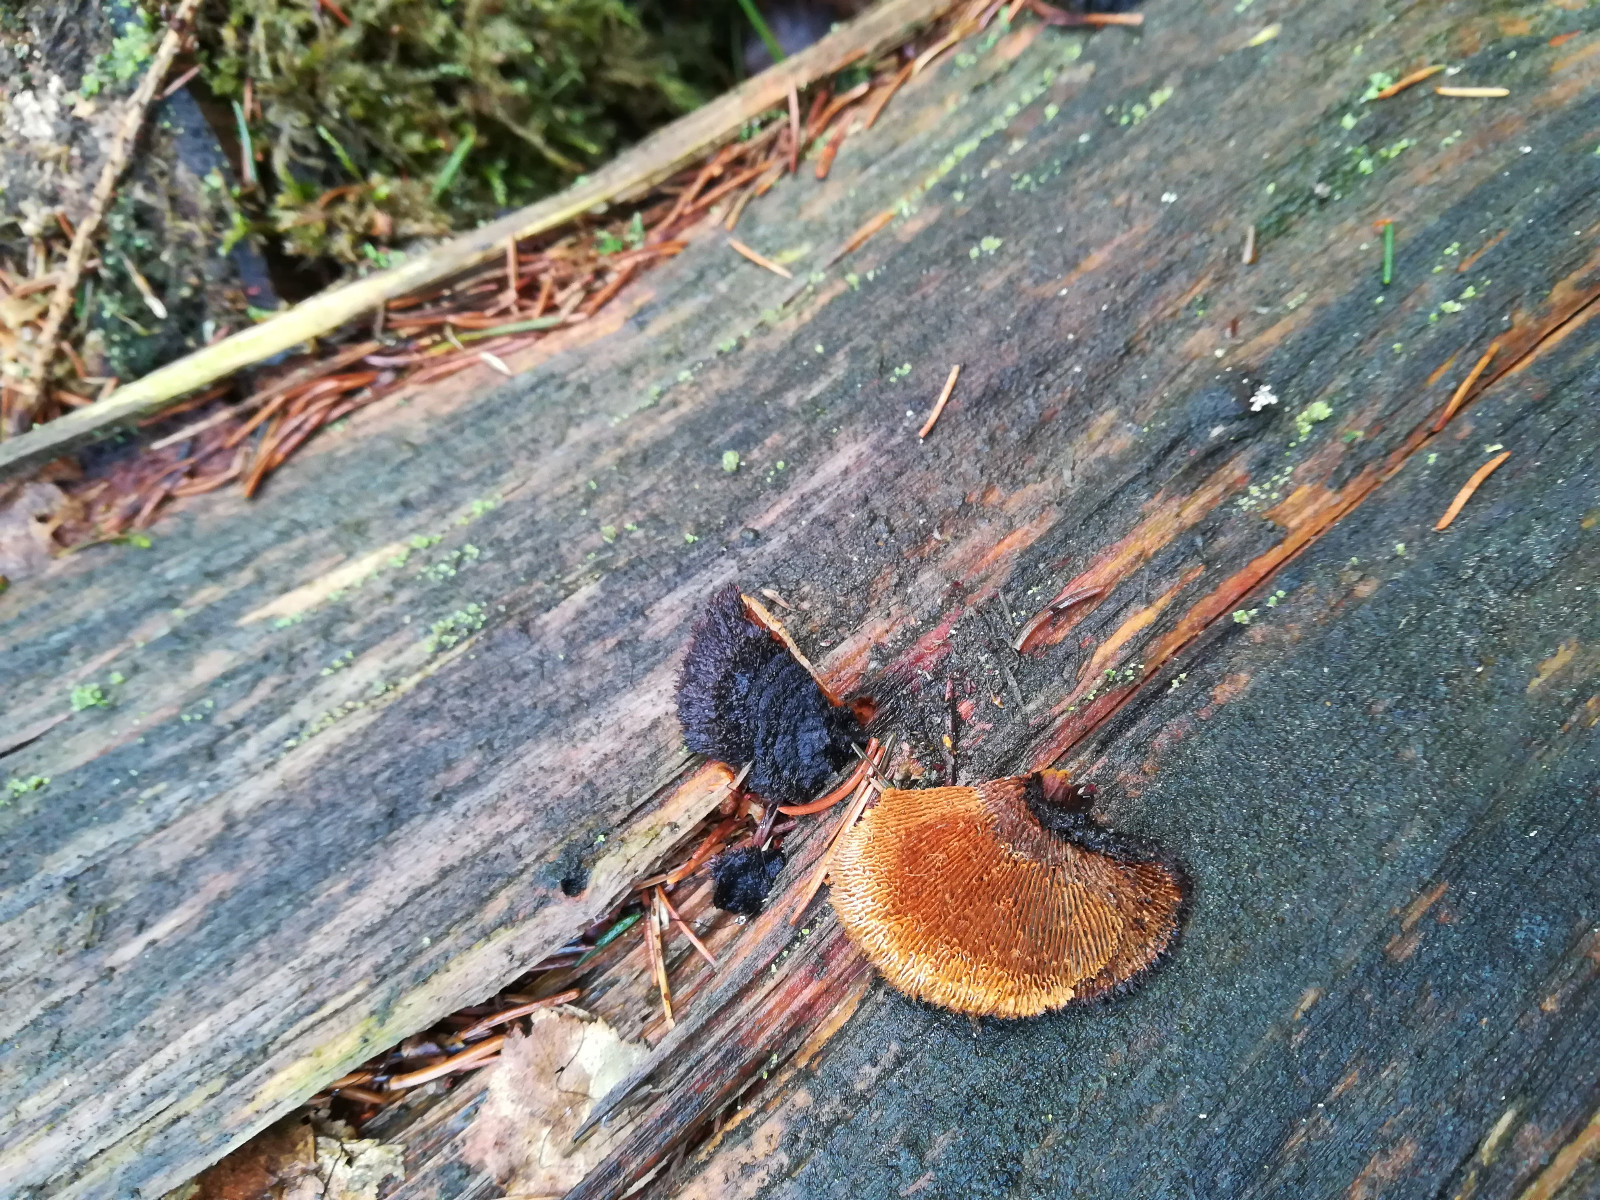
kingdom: Fungi
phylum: Basidiomycota
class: Agaricomycetes
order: Gloeophyllales
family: Gloeophyllaceae
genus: Gloeophyllum
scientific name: Gloeophyllum sepiarium
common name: fyrre-korkhat
